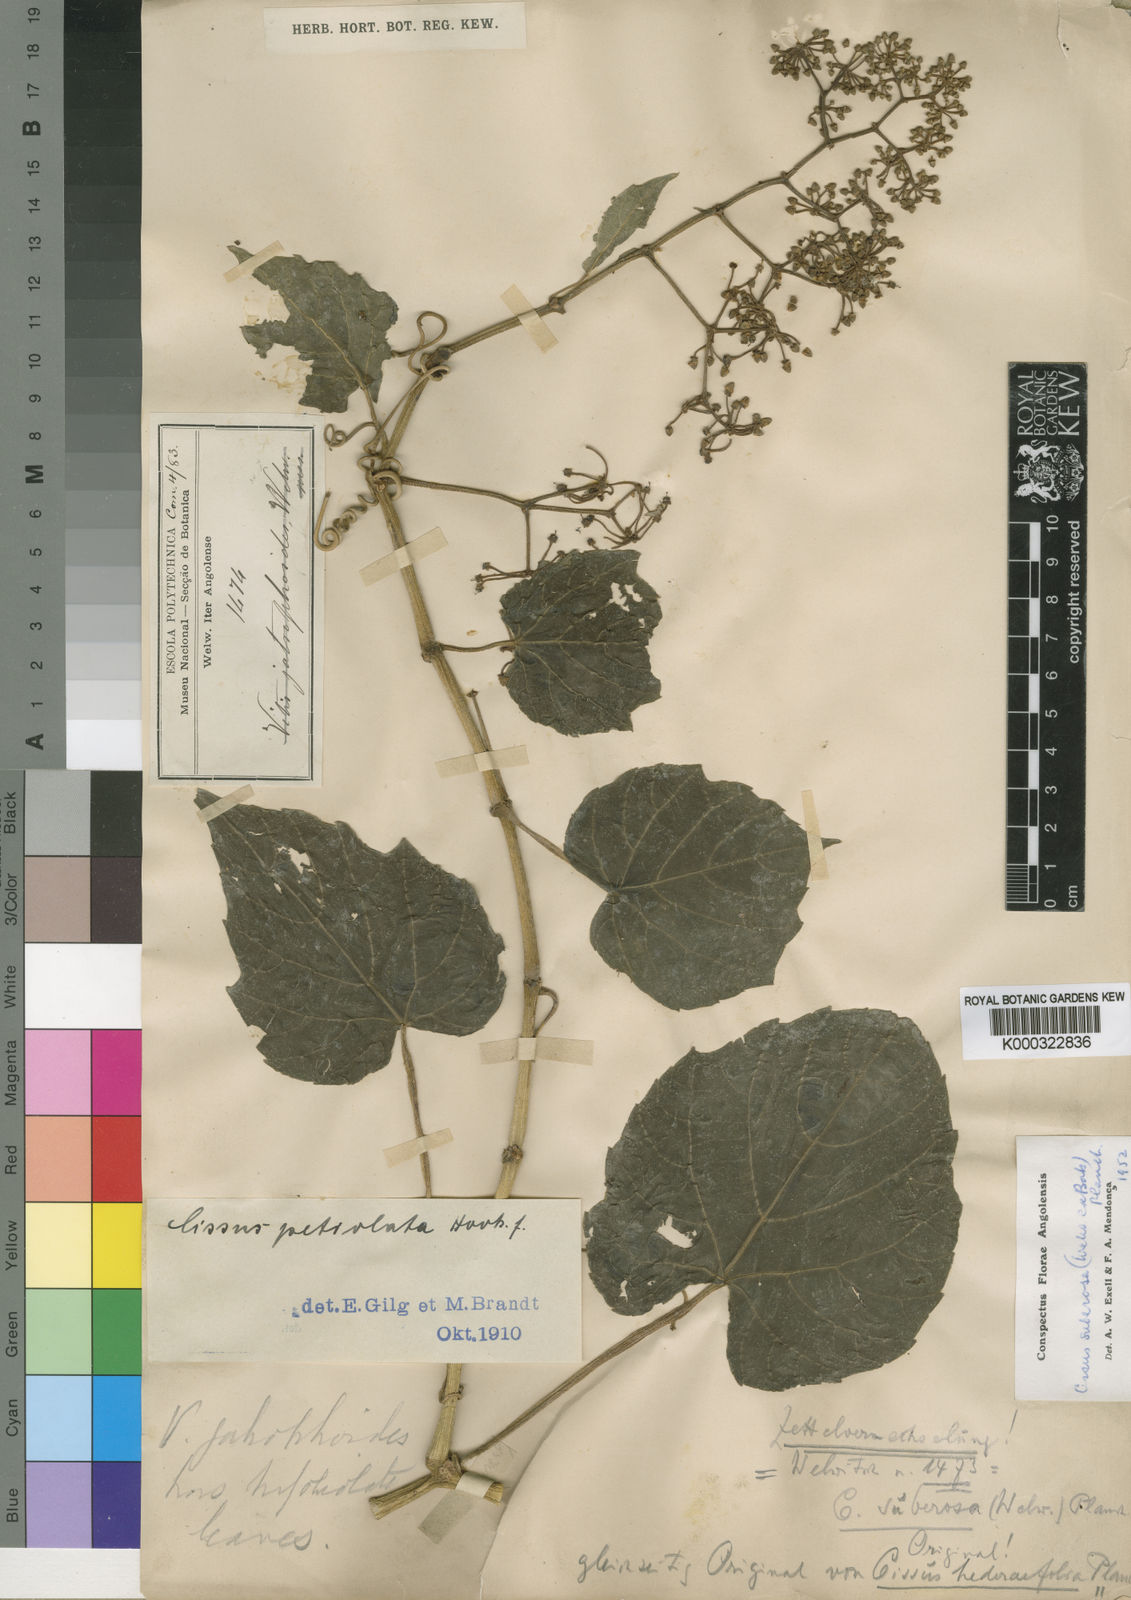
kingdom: Plantae
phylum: Tracheophyta
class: Magnoliopsida
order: Vitales
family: Vitaceae
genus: Cissus
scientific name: Cissus petiolata
